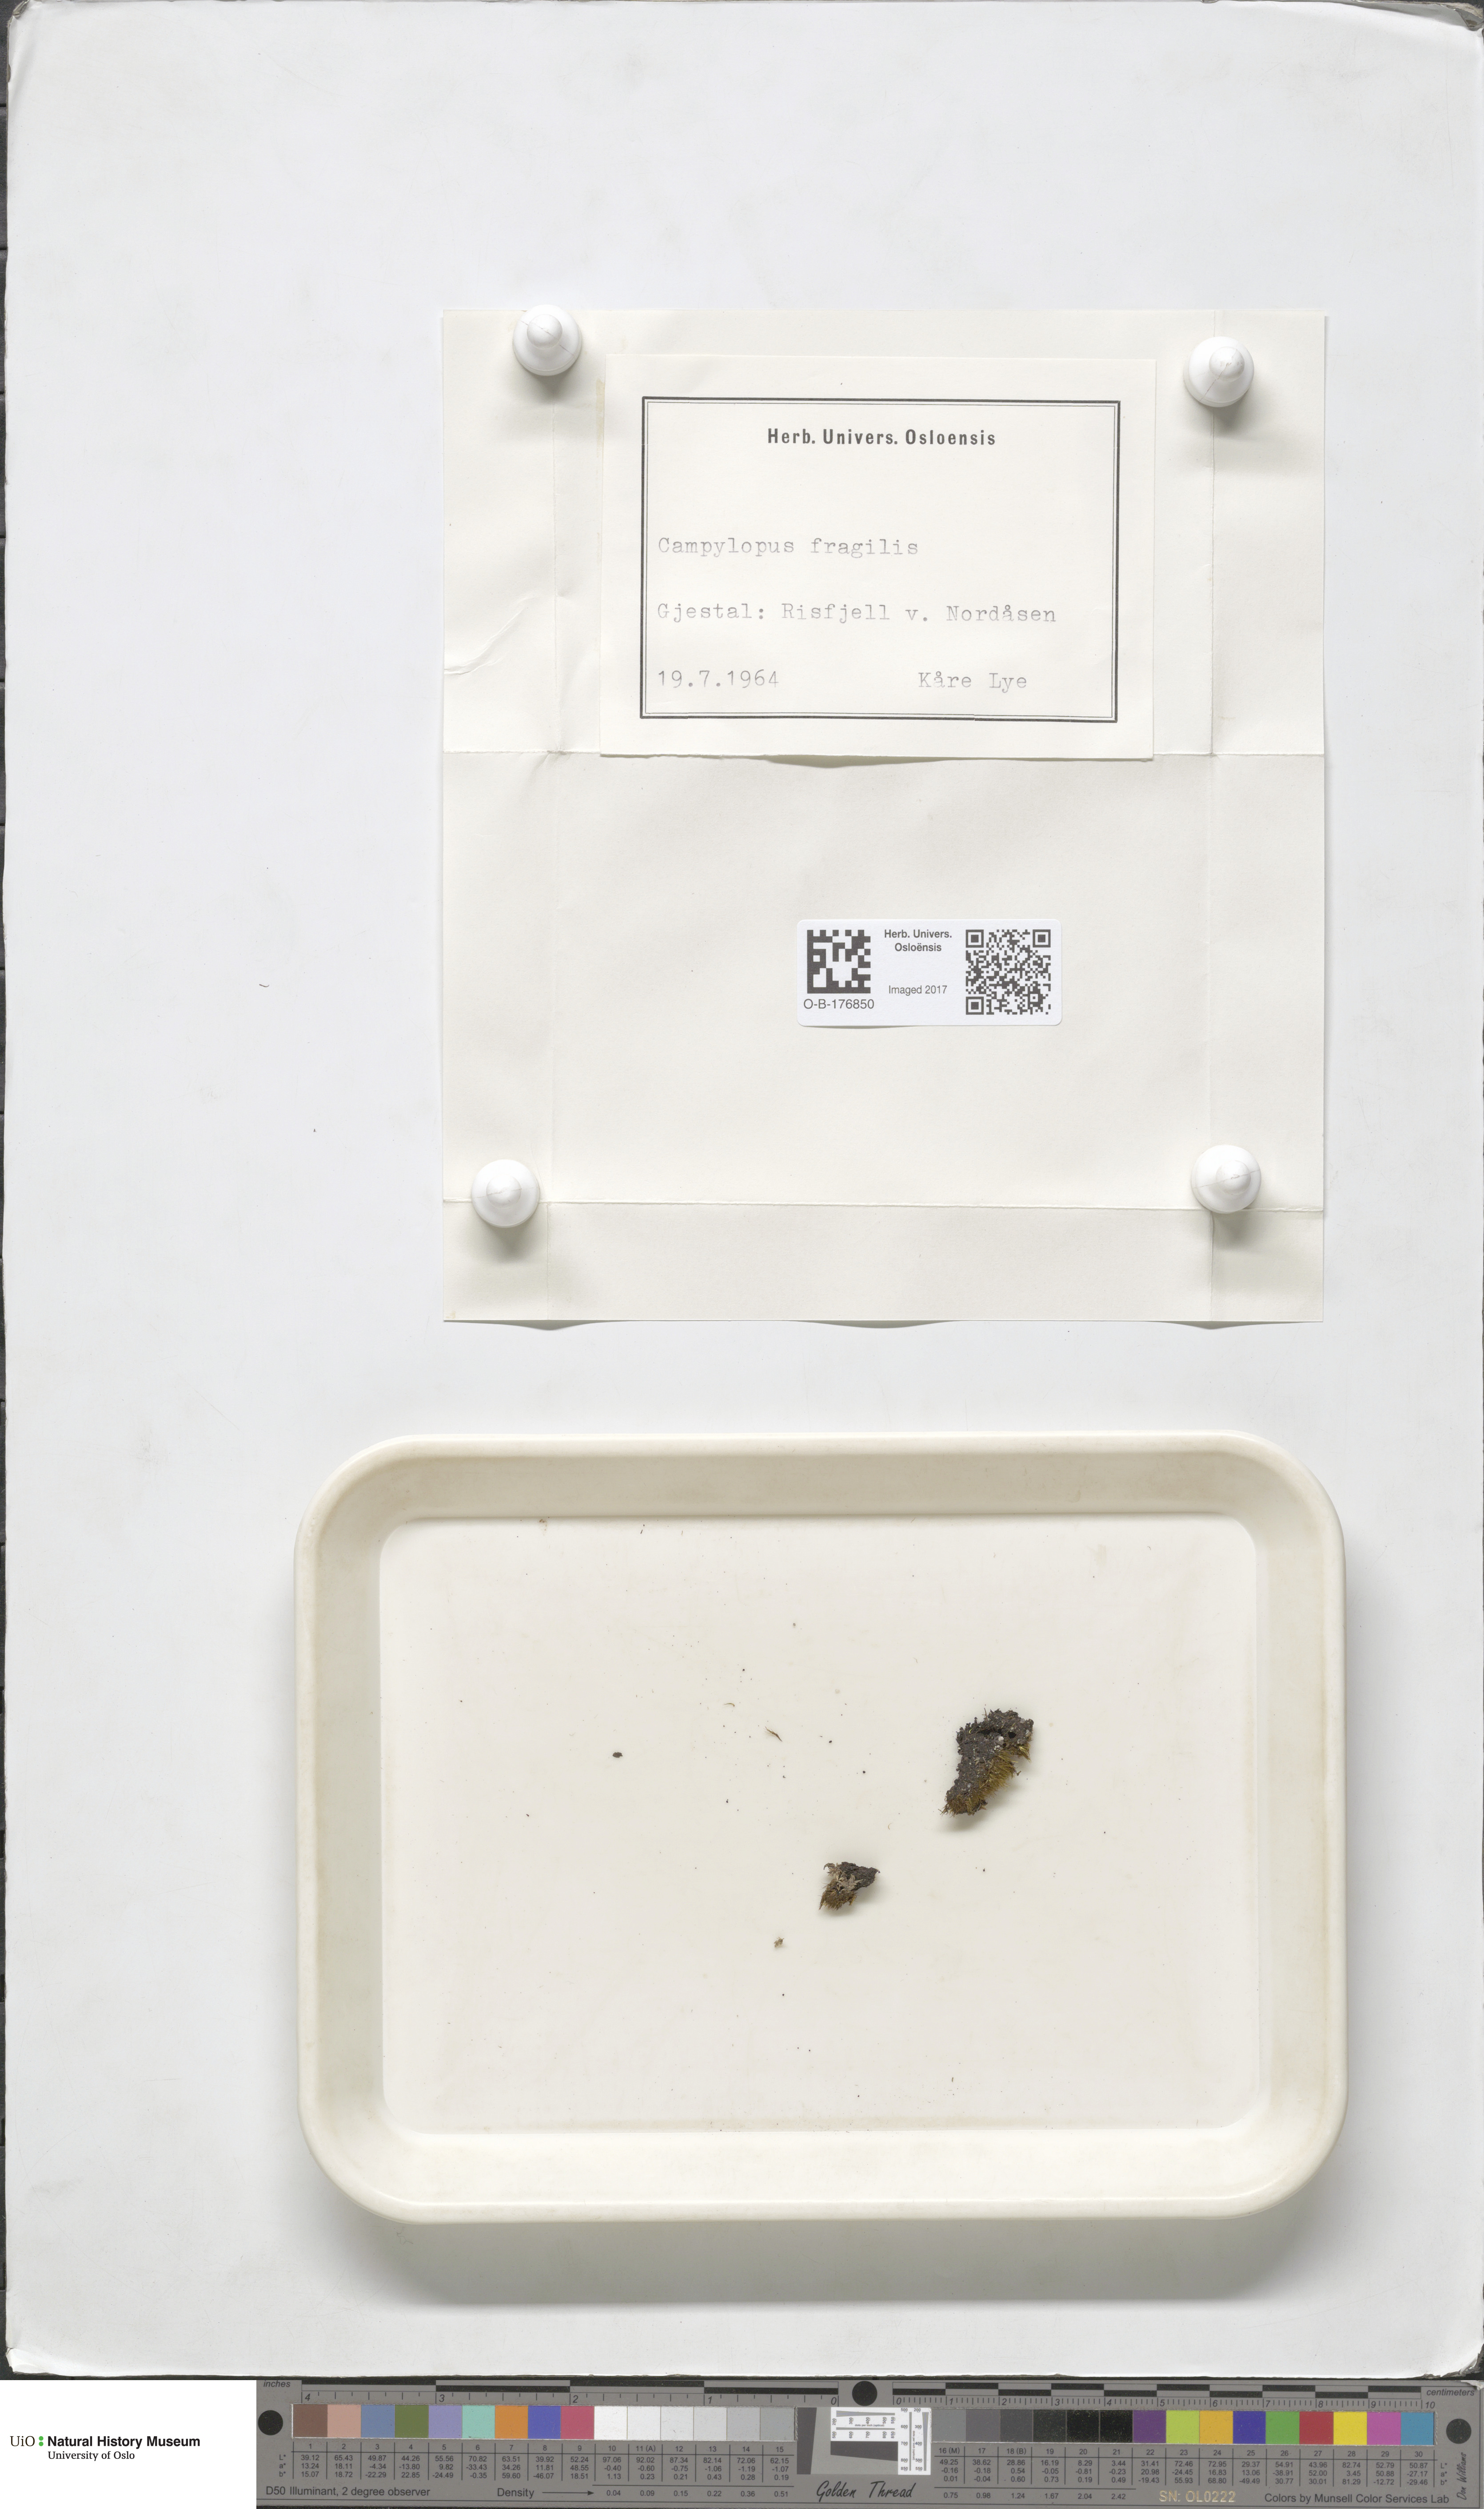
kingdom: Plantae
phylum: Bryophyta
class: Bryopsida
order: Dicranales
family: Leucobryaceae
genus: Campylopus
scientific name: Campylopus fragilis
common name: Brittle swan-neck moss
